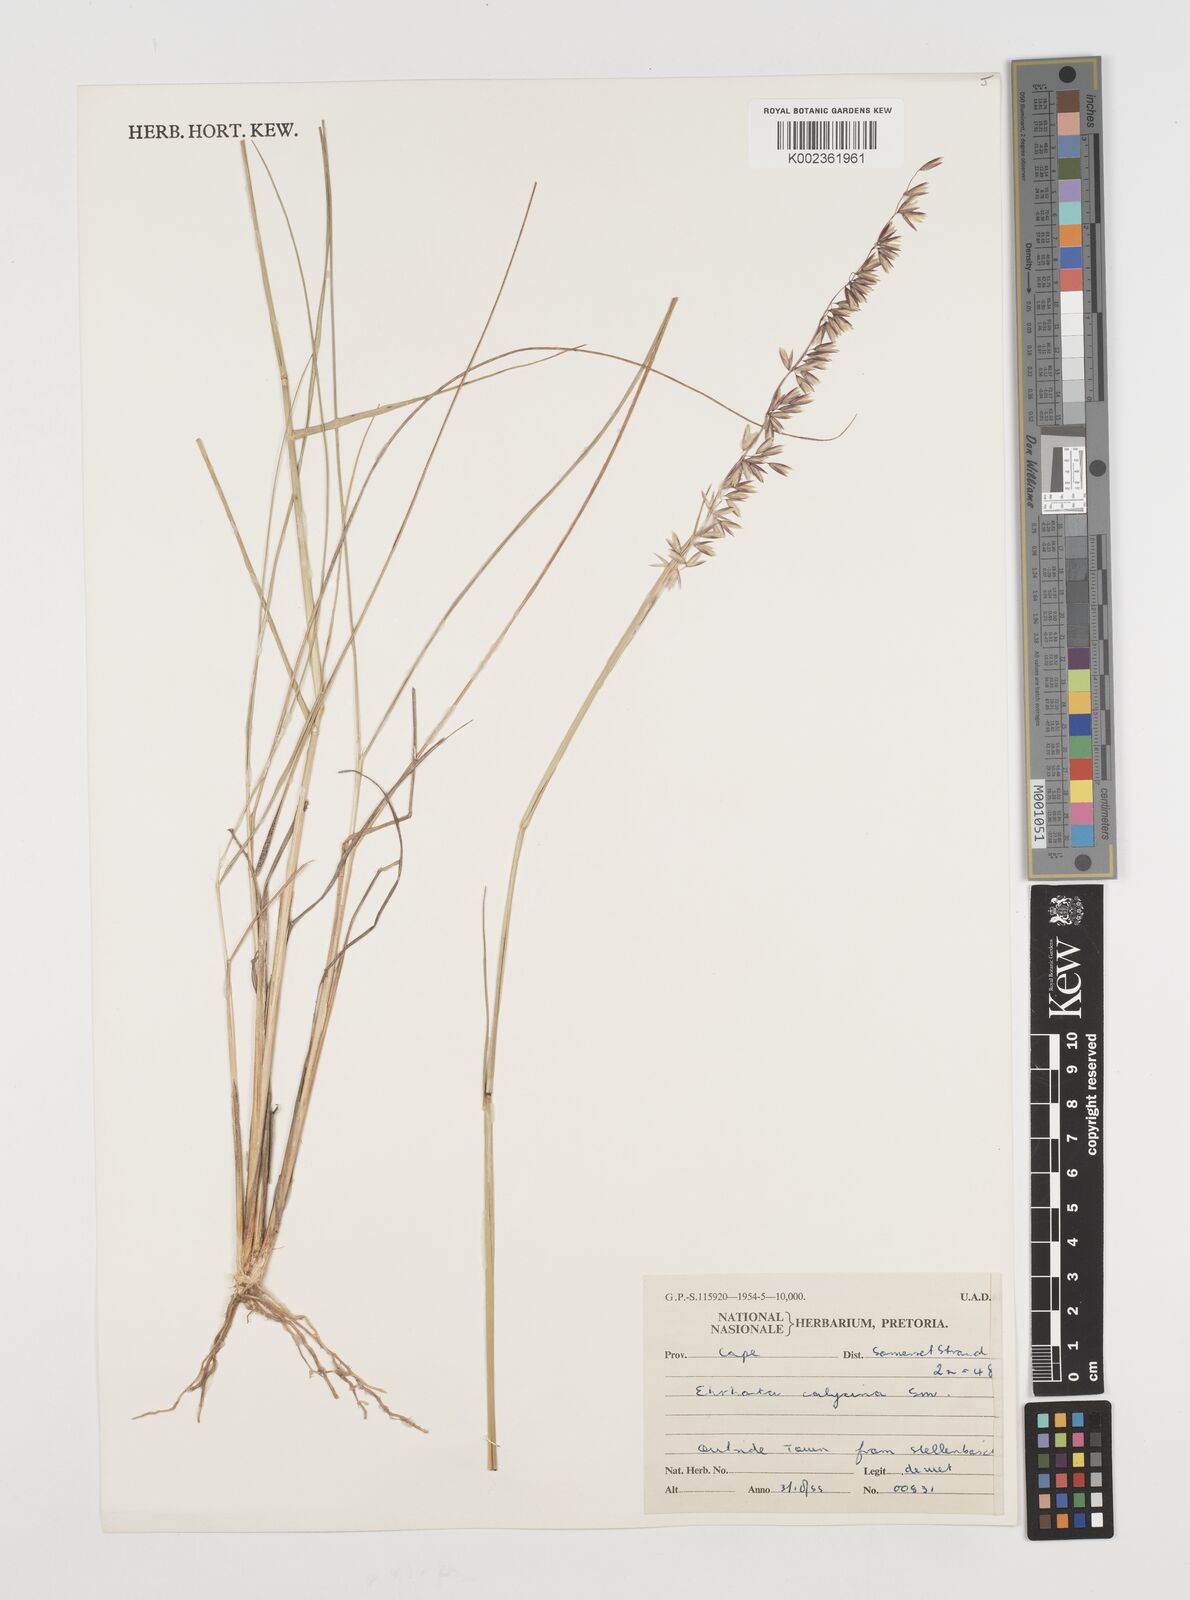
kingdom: Plantae
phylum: Tracheophyta
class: Liliopsida
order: Poales
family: Poaceae
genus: Ehrharta
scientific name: Ehrharta calycina
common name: Perennial veldtgrass
